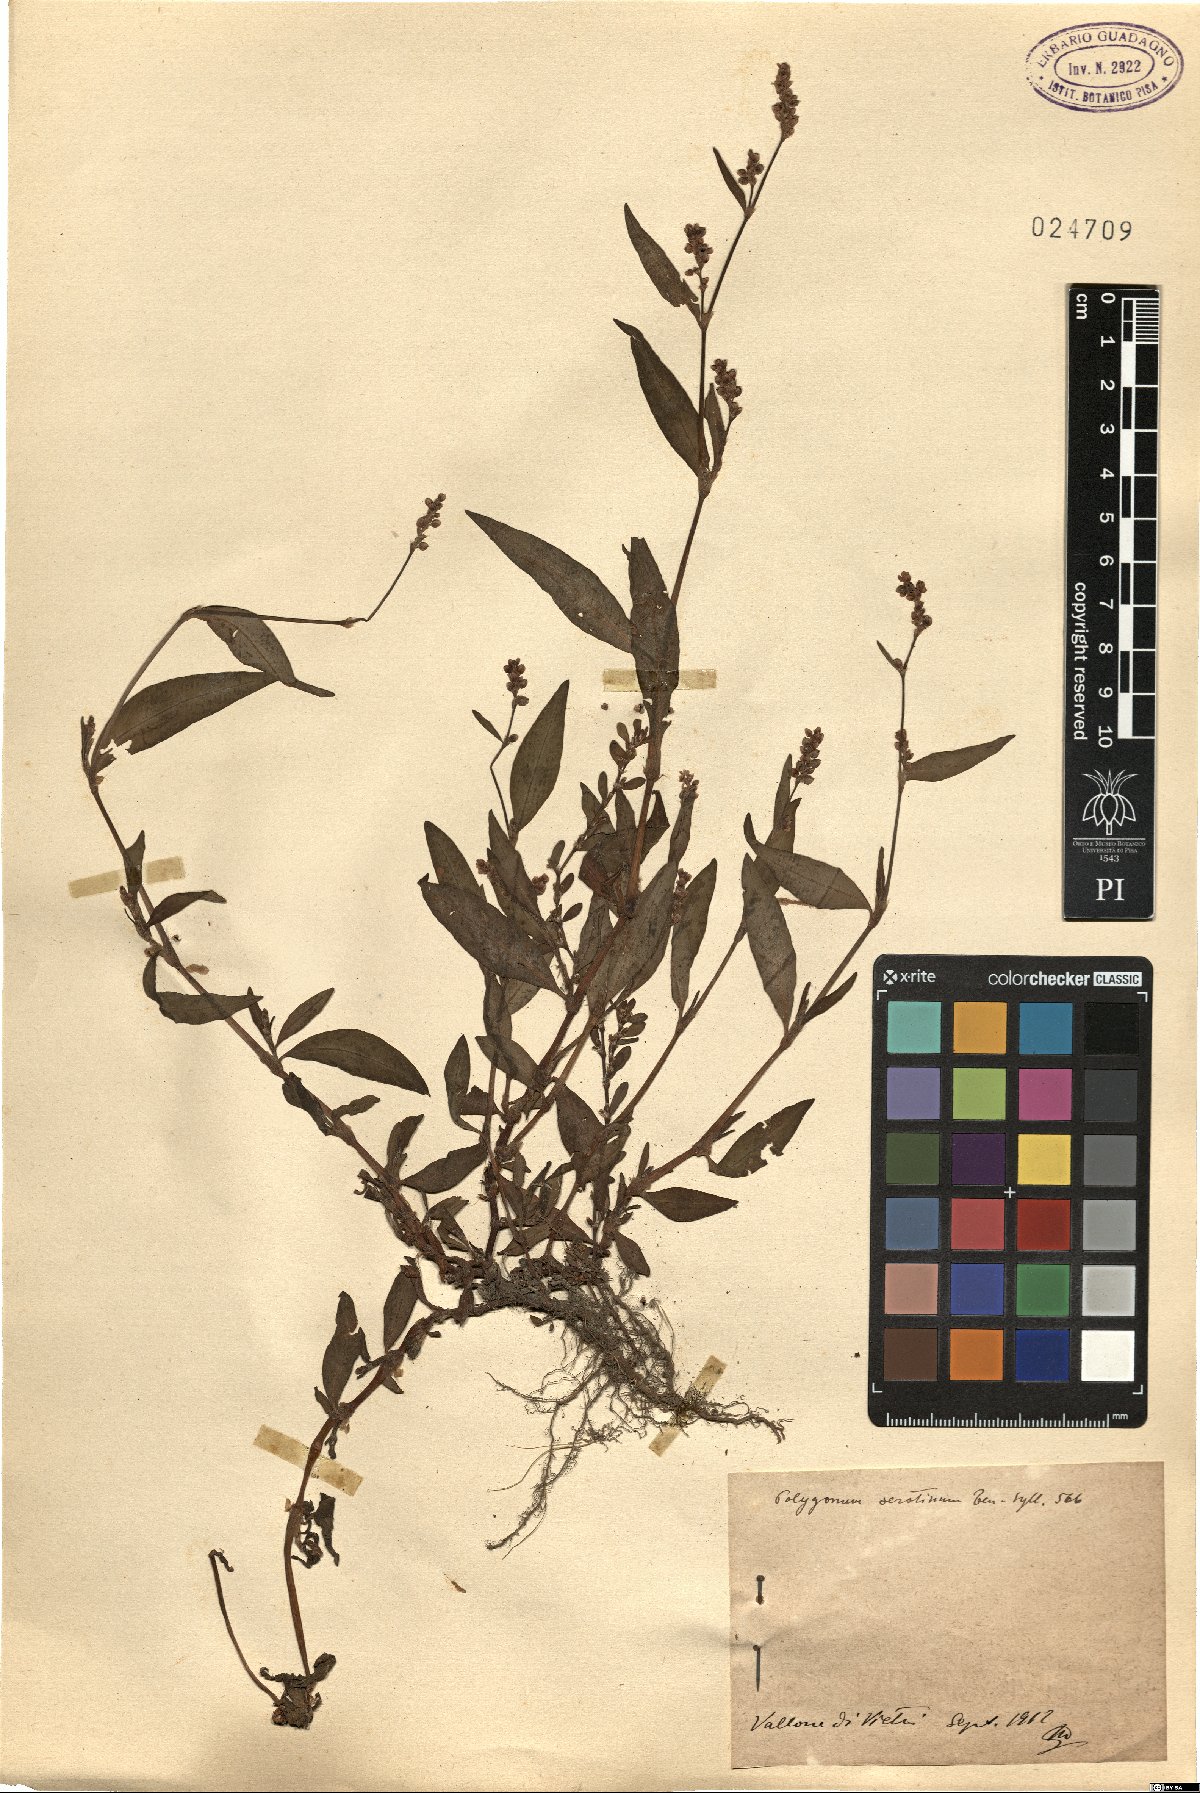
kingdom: Plantae
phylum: Tracheophyta
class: Magnoliopsida
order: Caryophyllales
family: Polygonaceae
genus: Persicaria
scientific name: Persicaria maculosa
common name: Redshank
